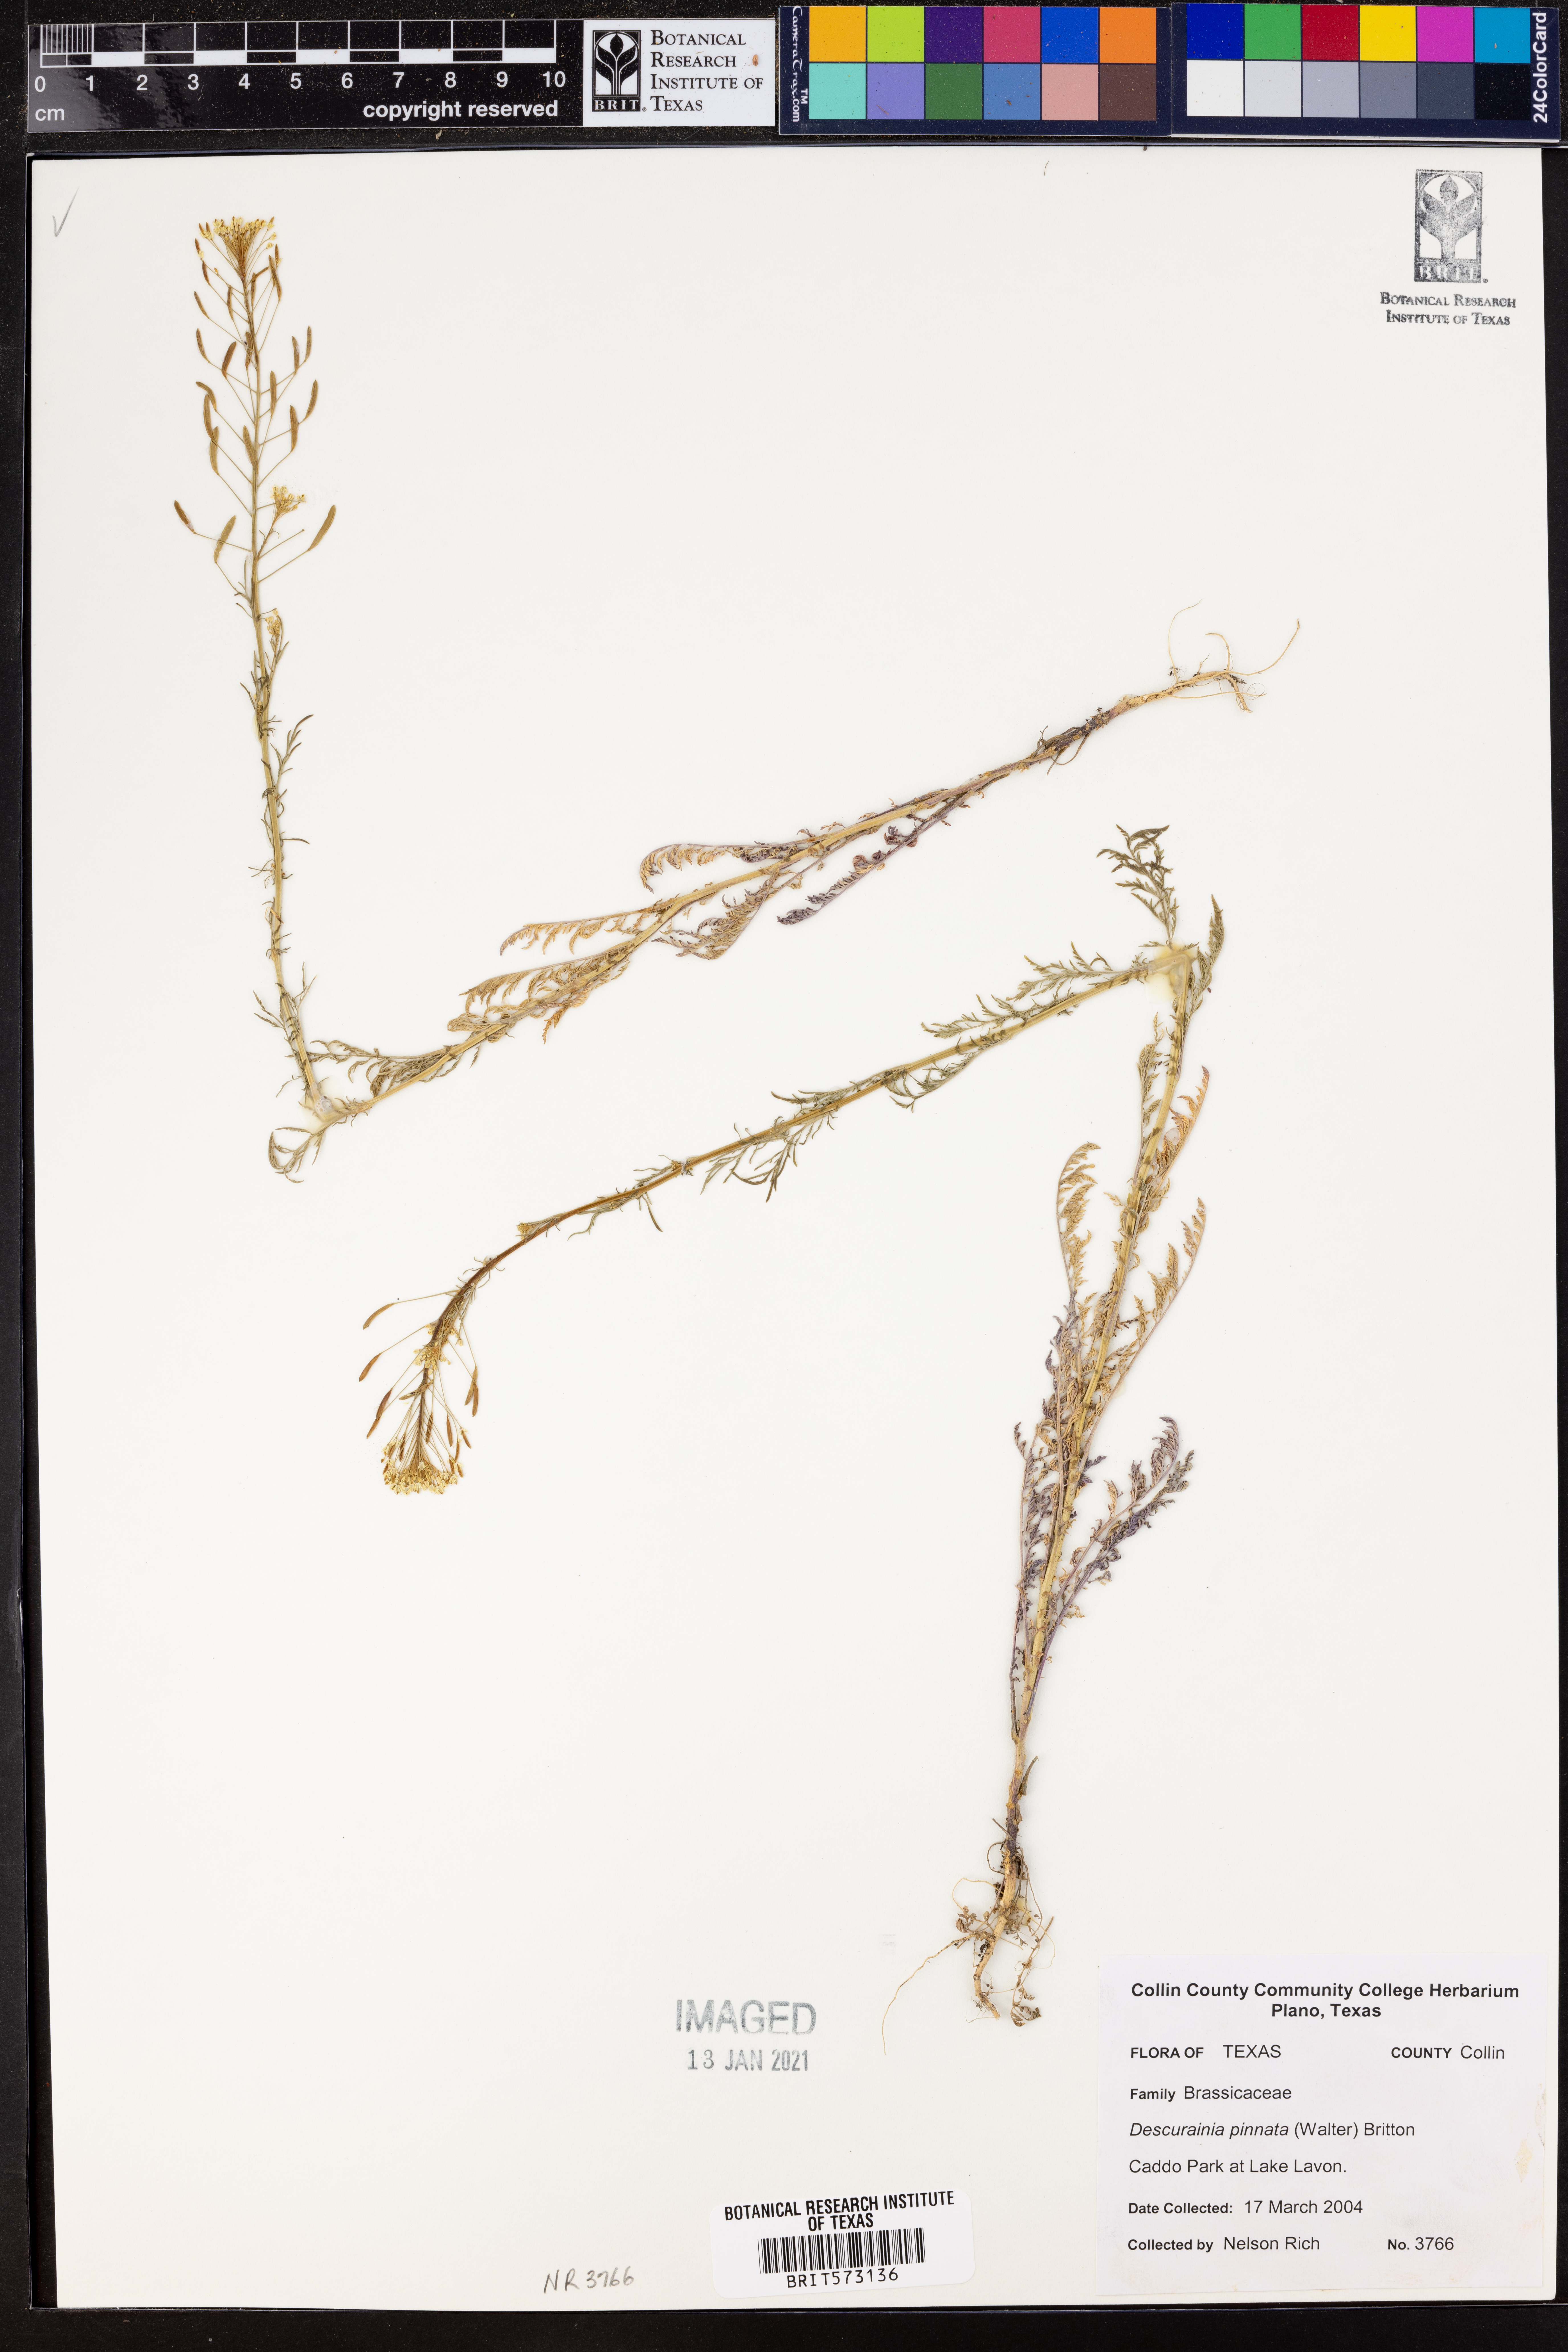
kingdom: Plantae
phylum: Tracheophyta
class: Magnoliopsida
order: Brassicales
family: Brassicaceae
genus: Descurainia
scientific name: Descurainia pinnata
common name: Western tansy mustard
